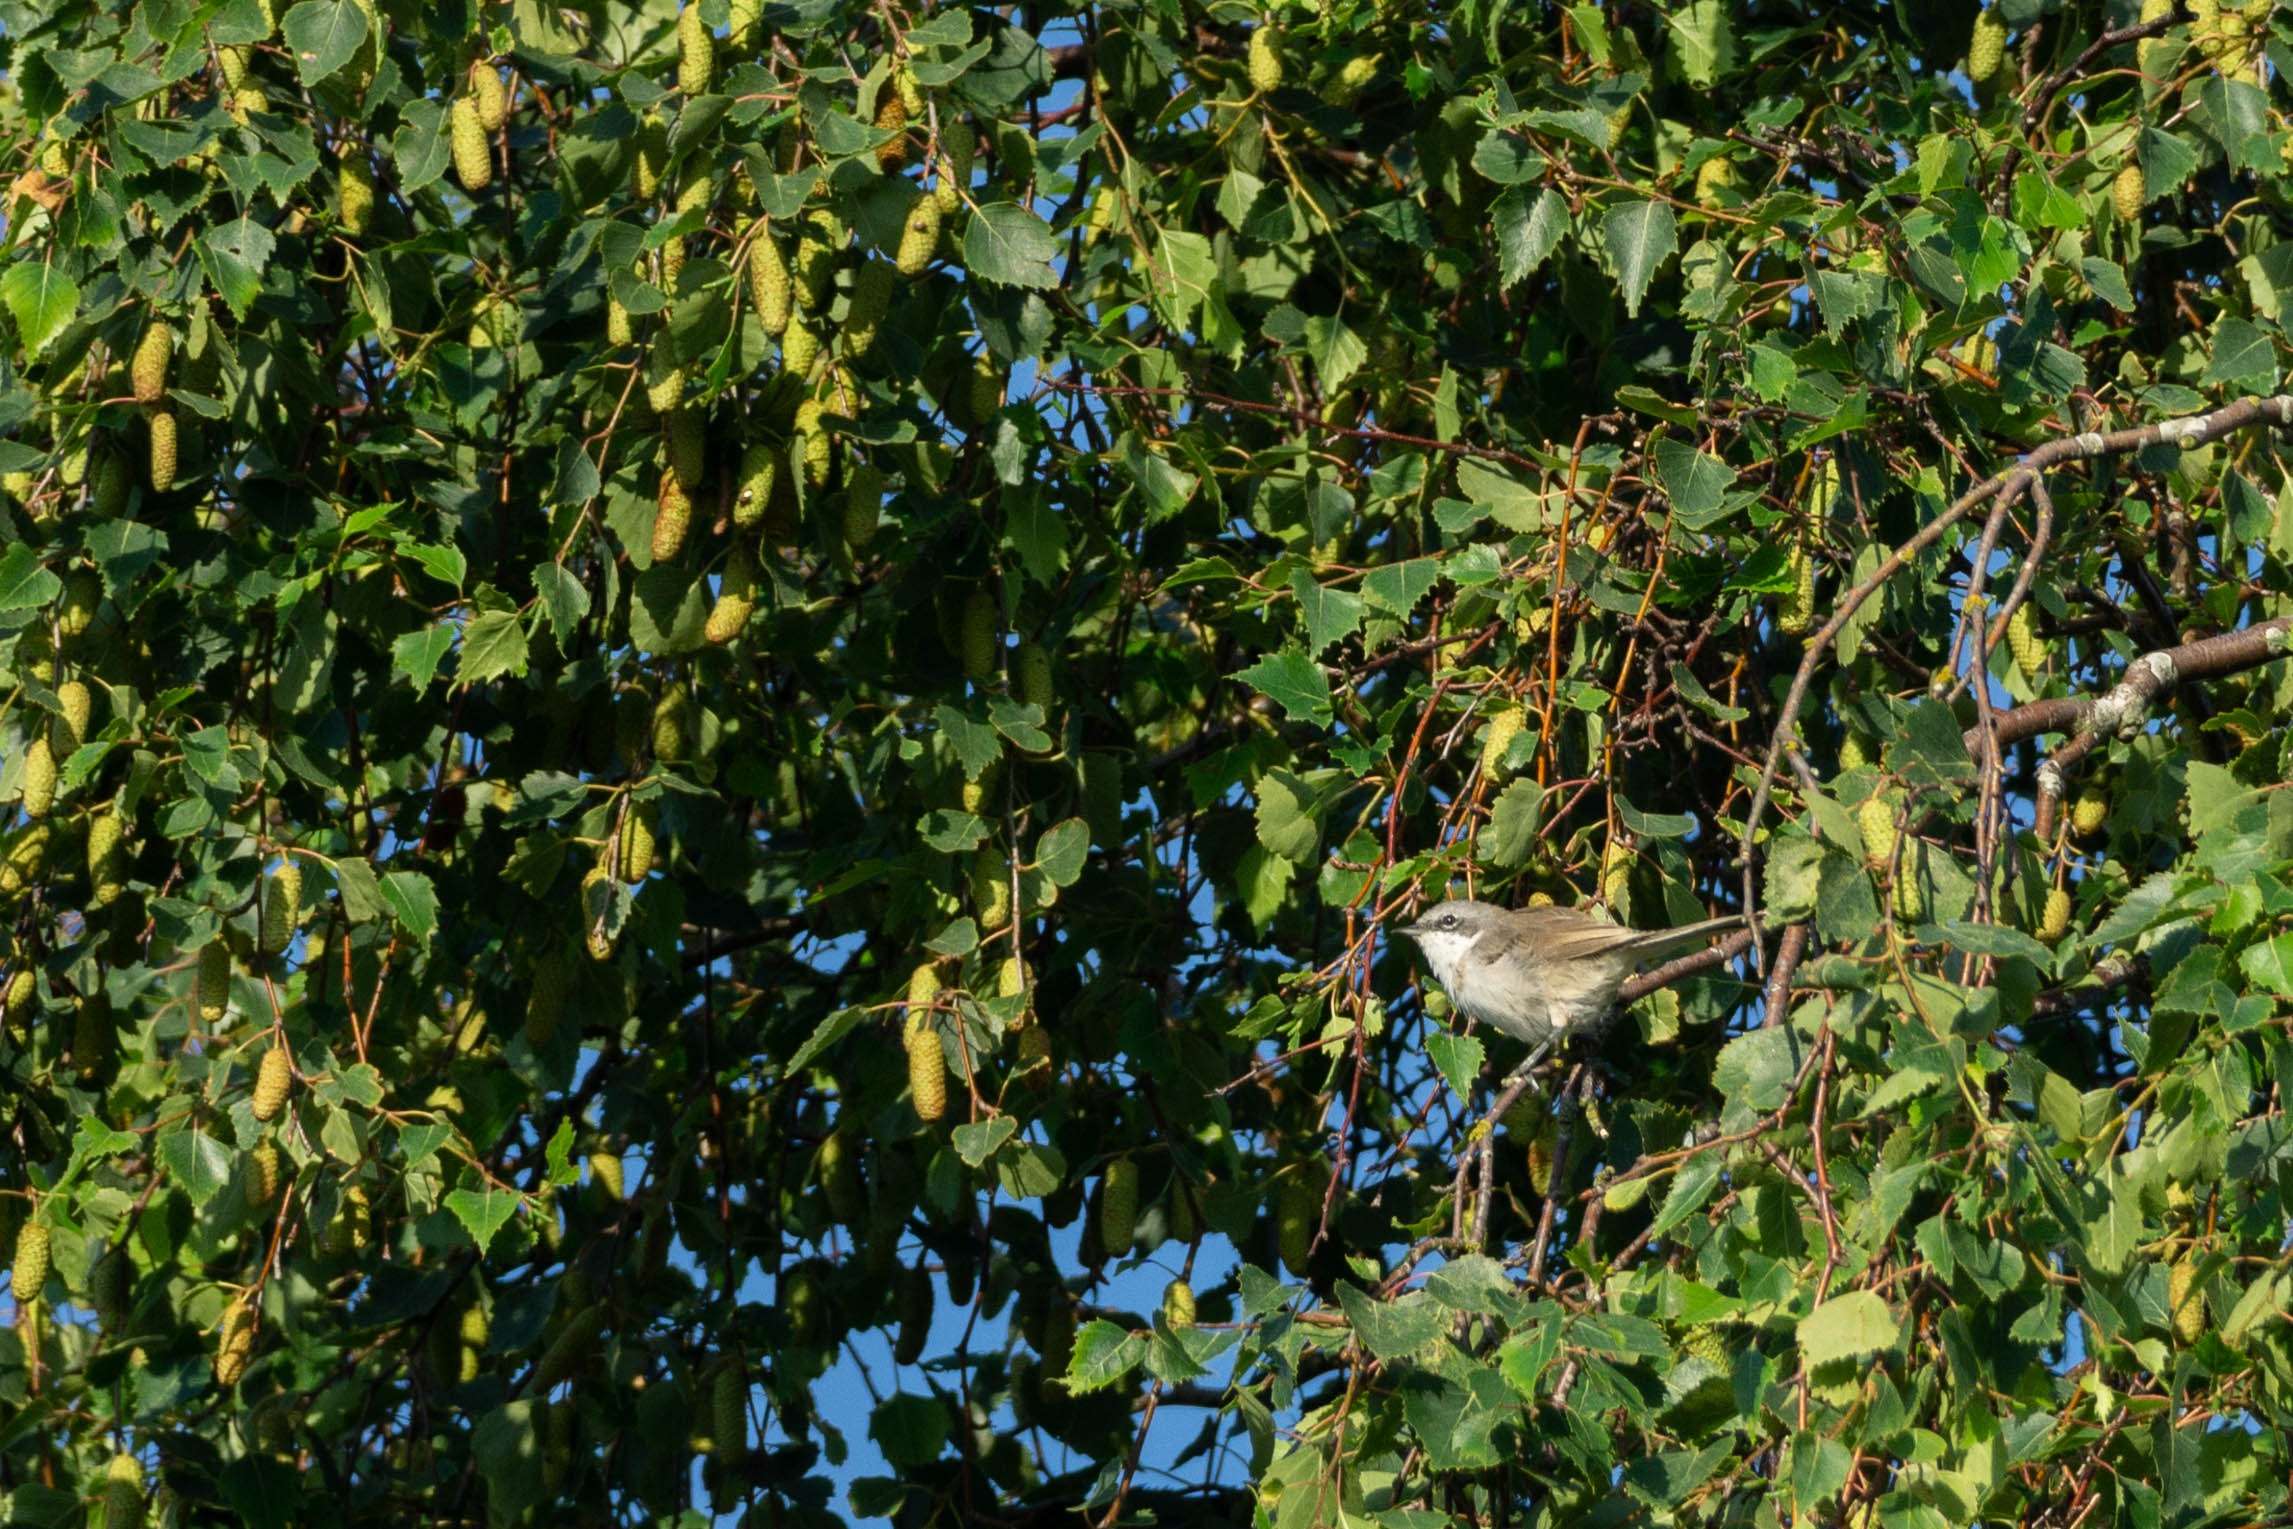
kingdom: Animalia
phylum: Chordata
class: Aves
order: Passeriformes
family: Sylviidae
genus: Sylvia
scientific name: Sylvia curruca
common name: Gærdesanger
